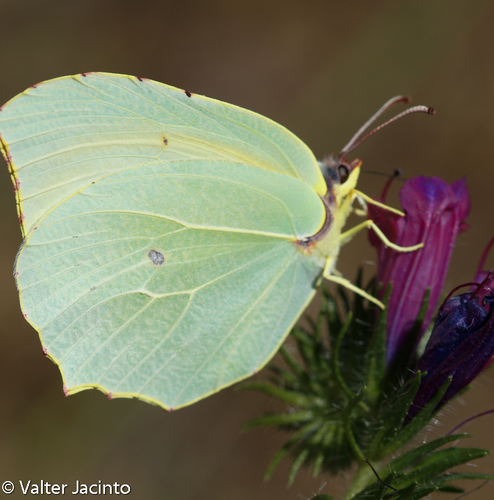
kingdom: Animalia
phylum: Arthropoda
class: Insecta
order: Lepidoptera
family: Pieridae
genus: Gonepteryx
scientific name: Gonepteryx cleopatra
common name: Cleopatra
